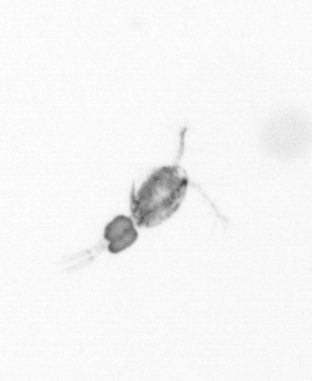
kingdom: Animalia
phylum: Arthropoda
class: Copepoda
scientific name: Copepoda
